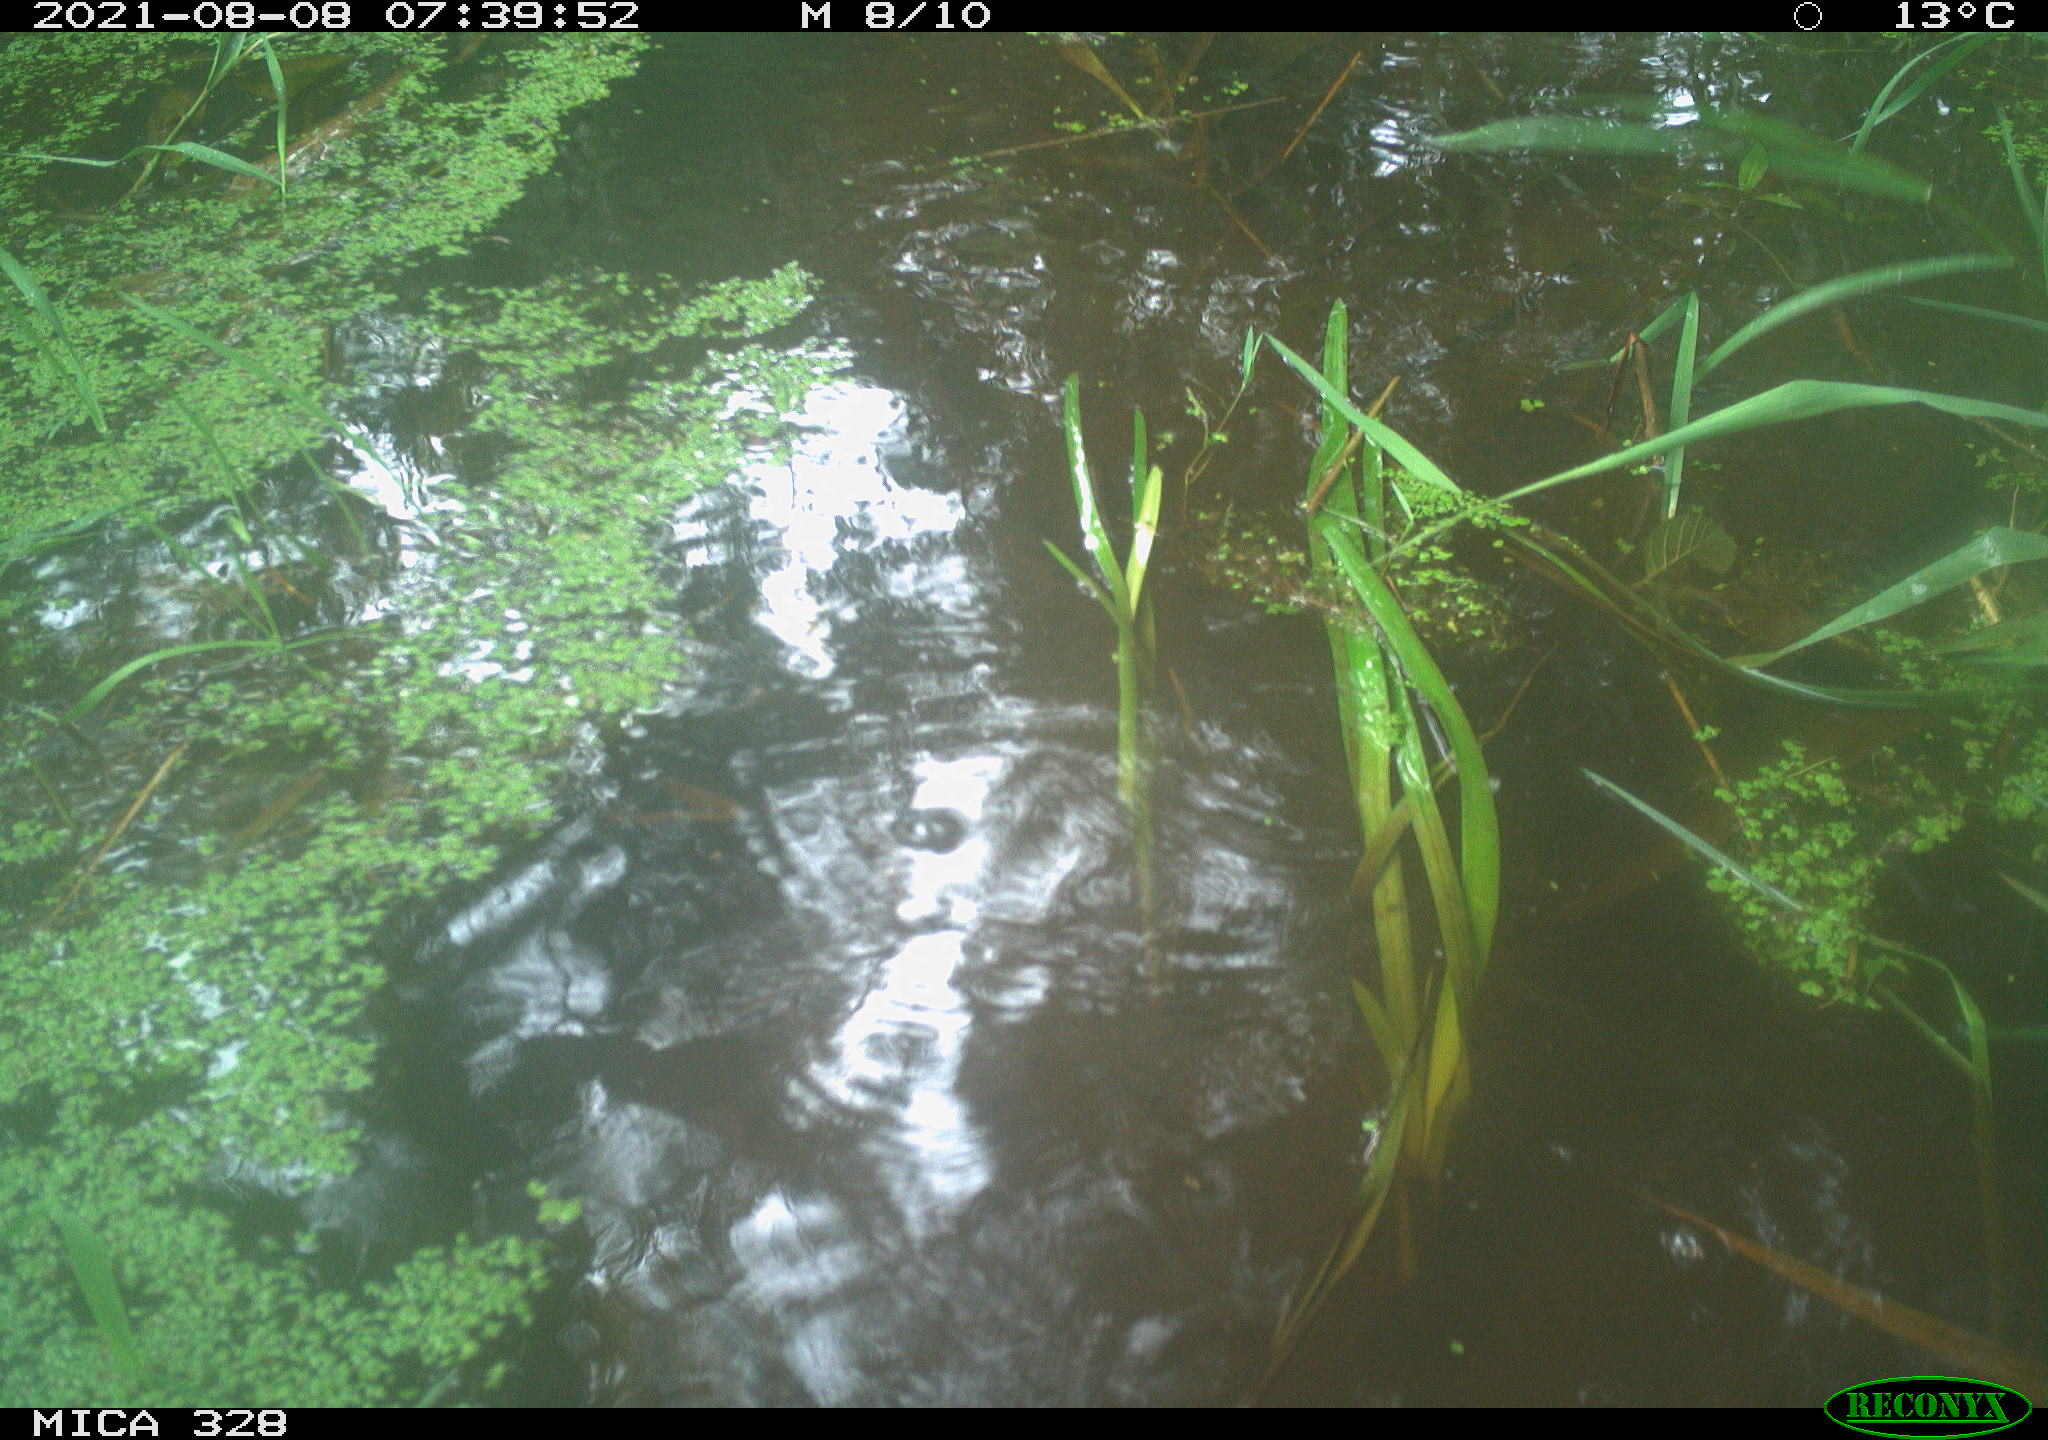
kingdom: Animalia
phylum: Chordata
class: Aves
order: Gruiformes
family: Rallidae
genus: Gallinula
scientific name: Gallinula chloropus
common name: Common moorhen
